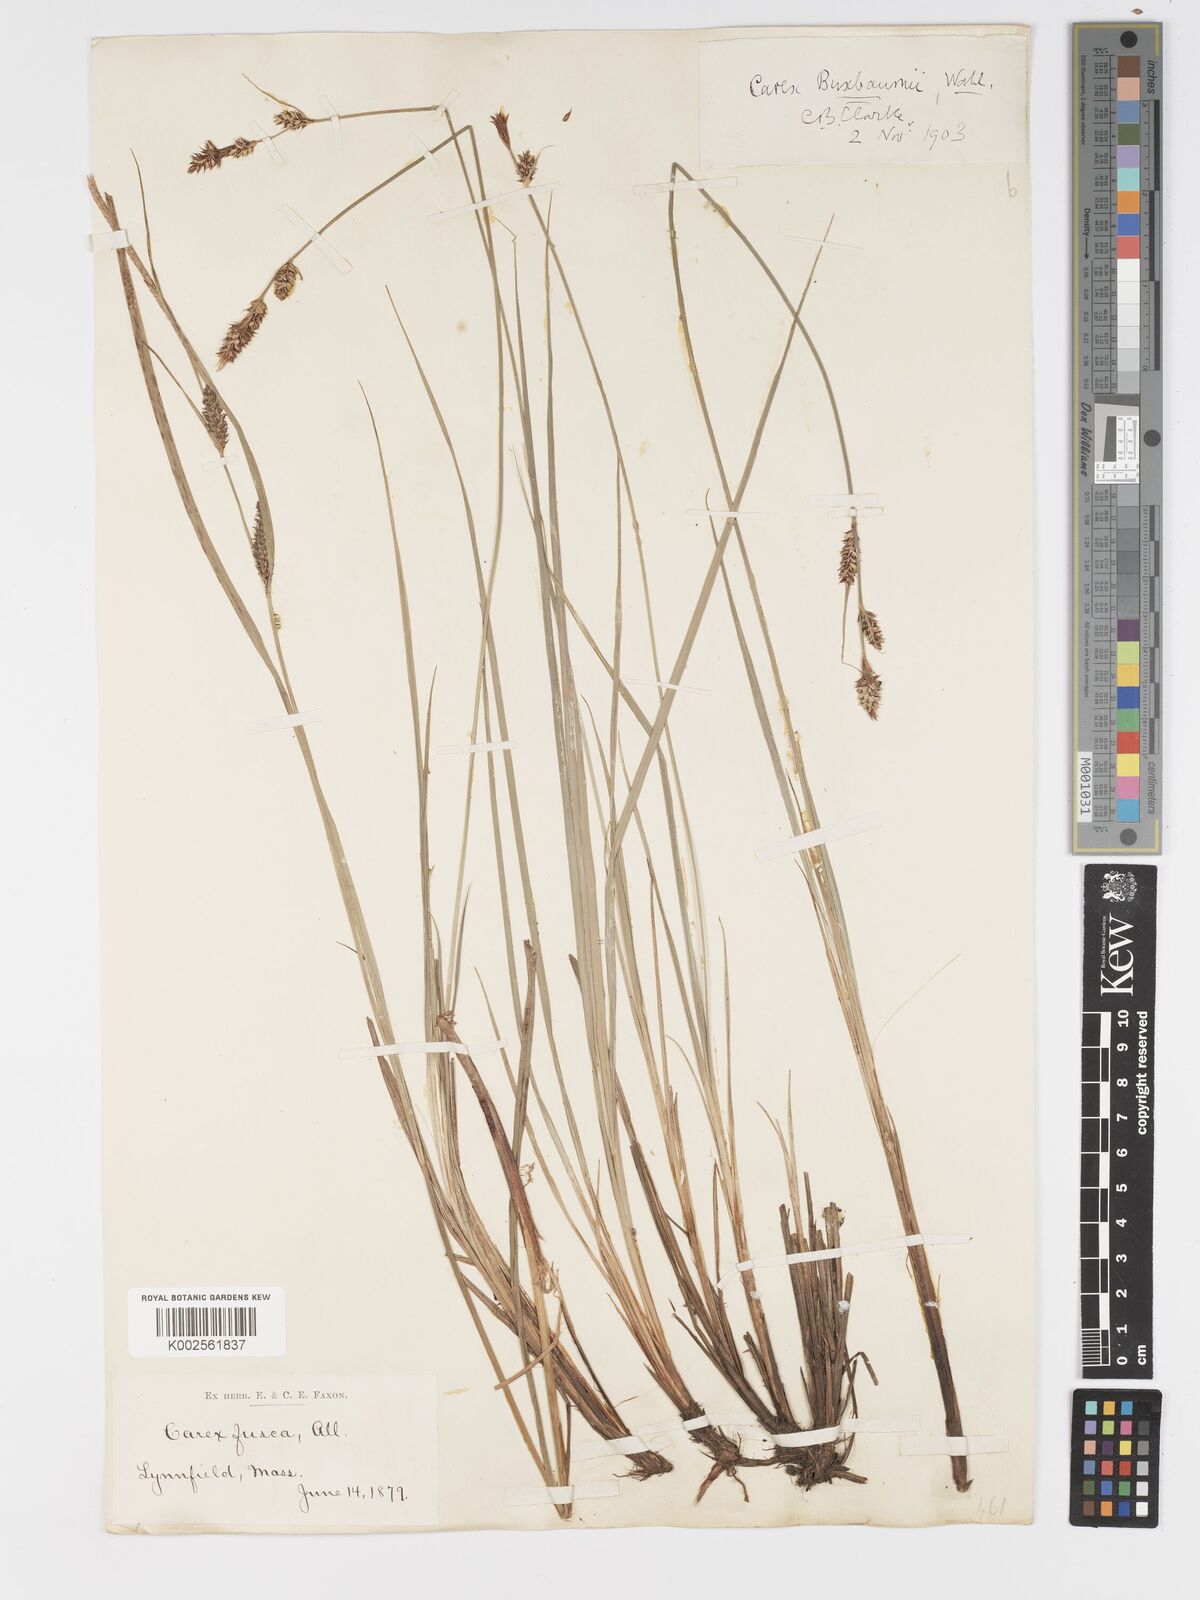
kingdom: Plantae
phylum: Tracheophyta
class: Liliopsida
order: Poales
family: Cyperaceae
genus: Carex
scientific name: Carex buxbaumii
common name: Club sedge
